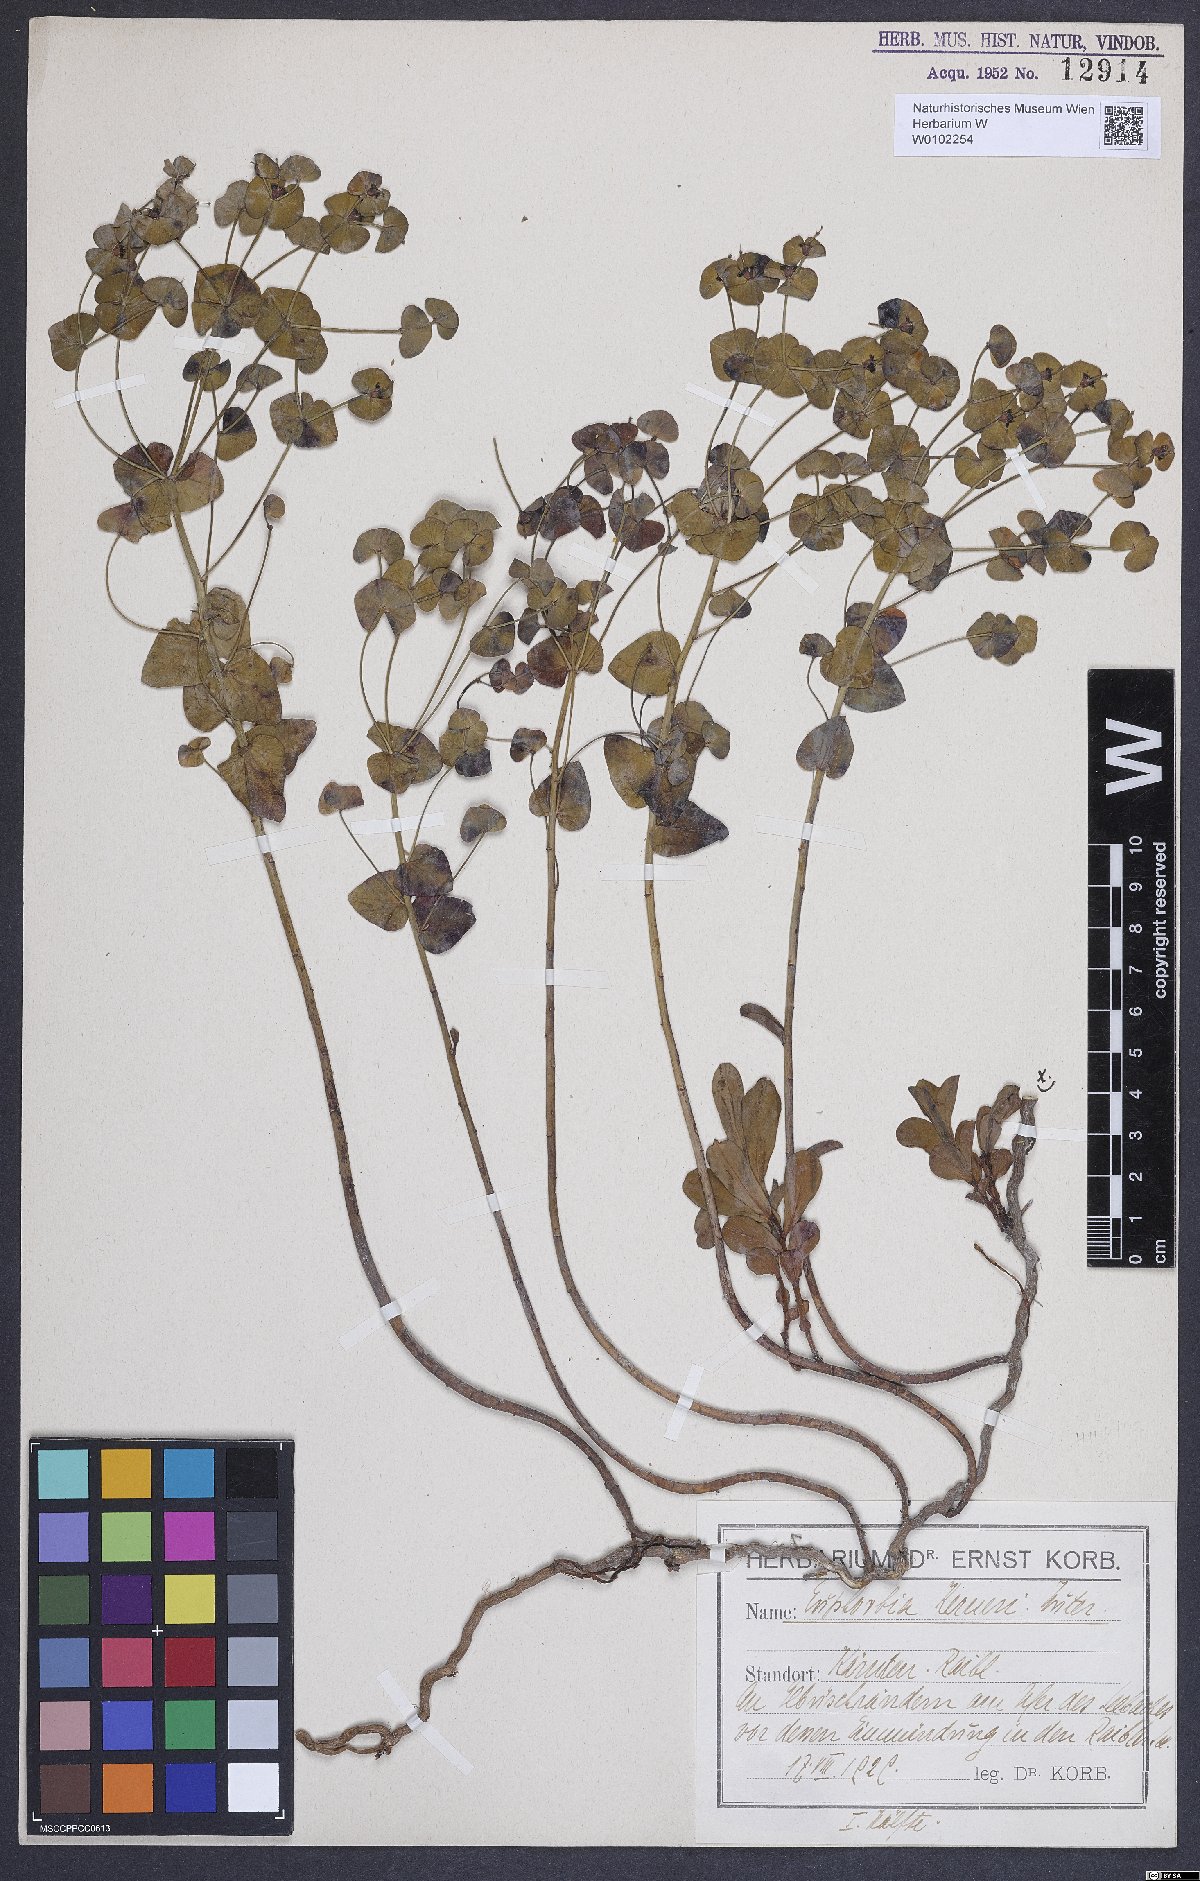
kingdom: Plantae
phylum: Tracheophyta
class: Magnoliopsida
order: Malpighiales
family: Euphorbiaceae
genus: Euphorbia
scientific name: Euphorbia kerneri
